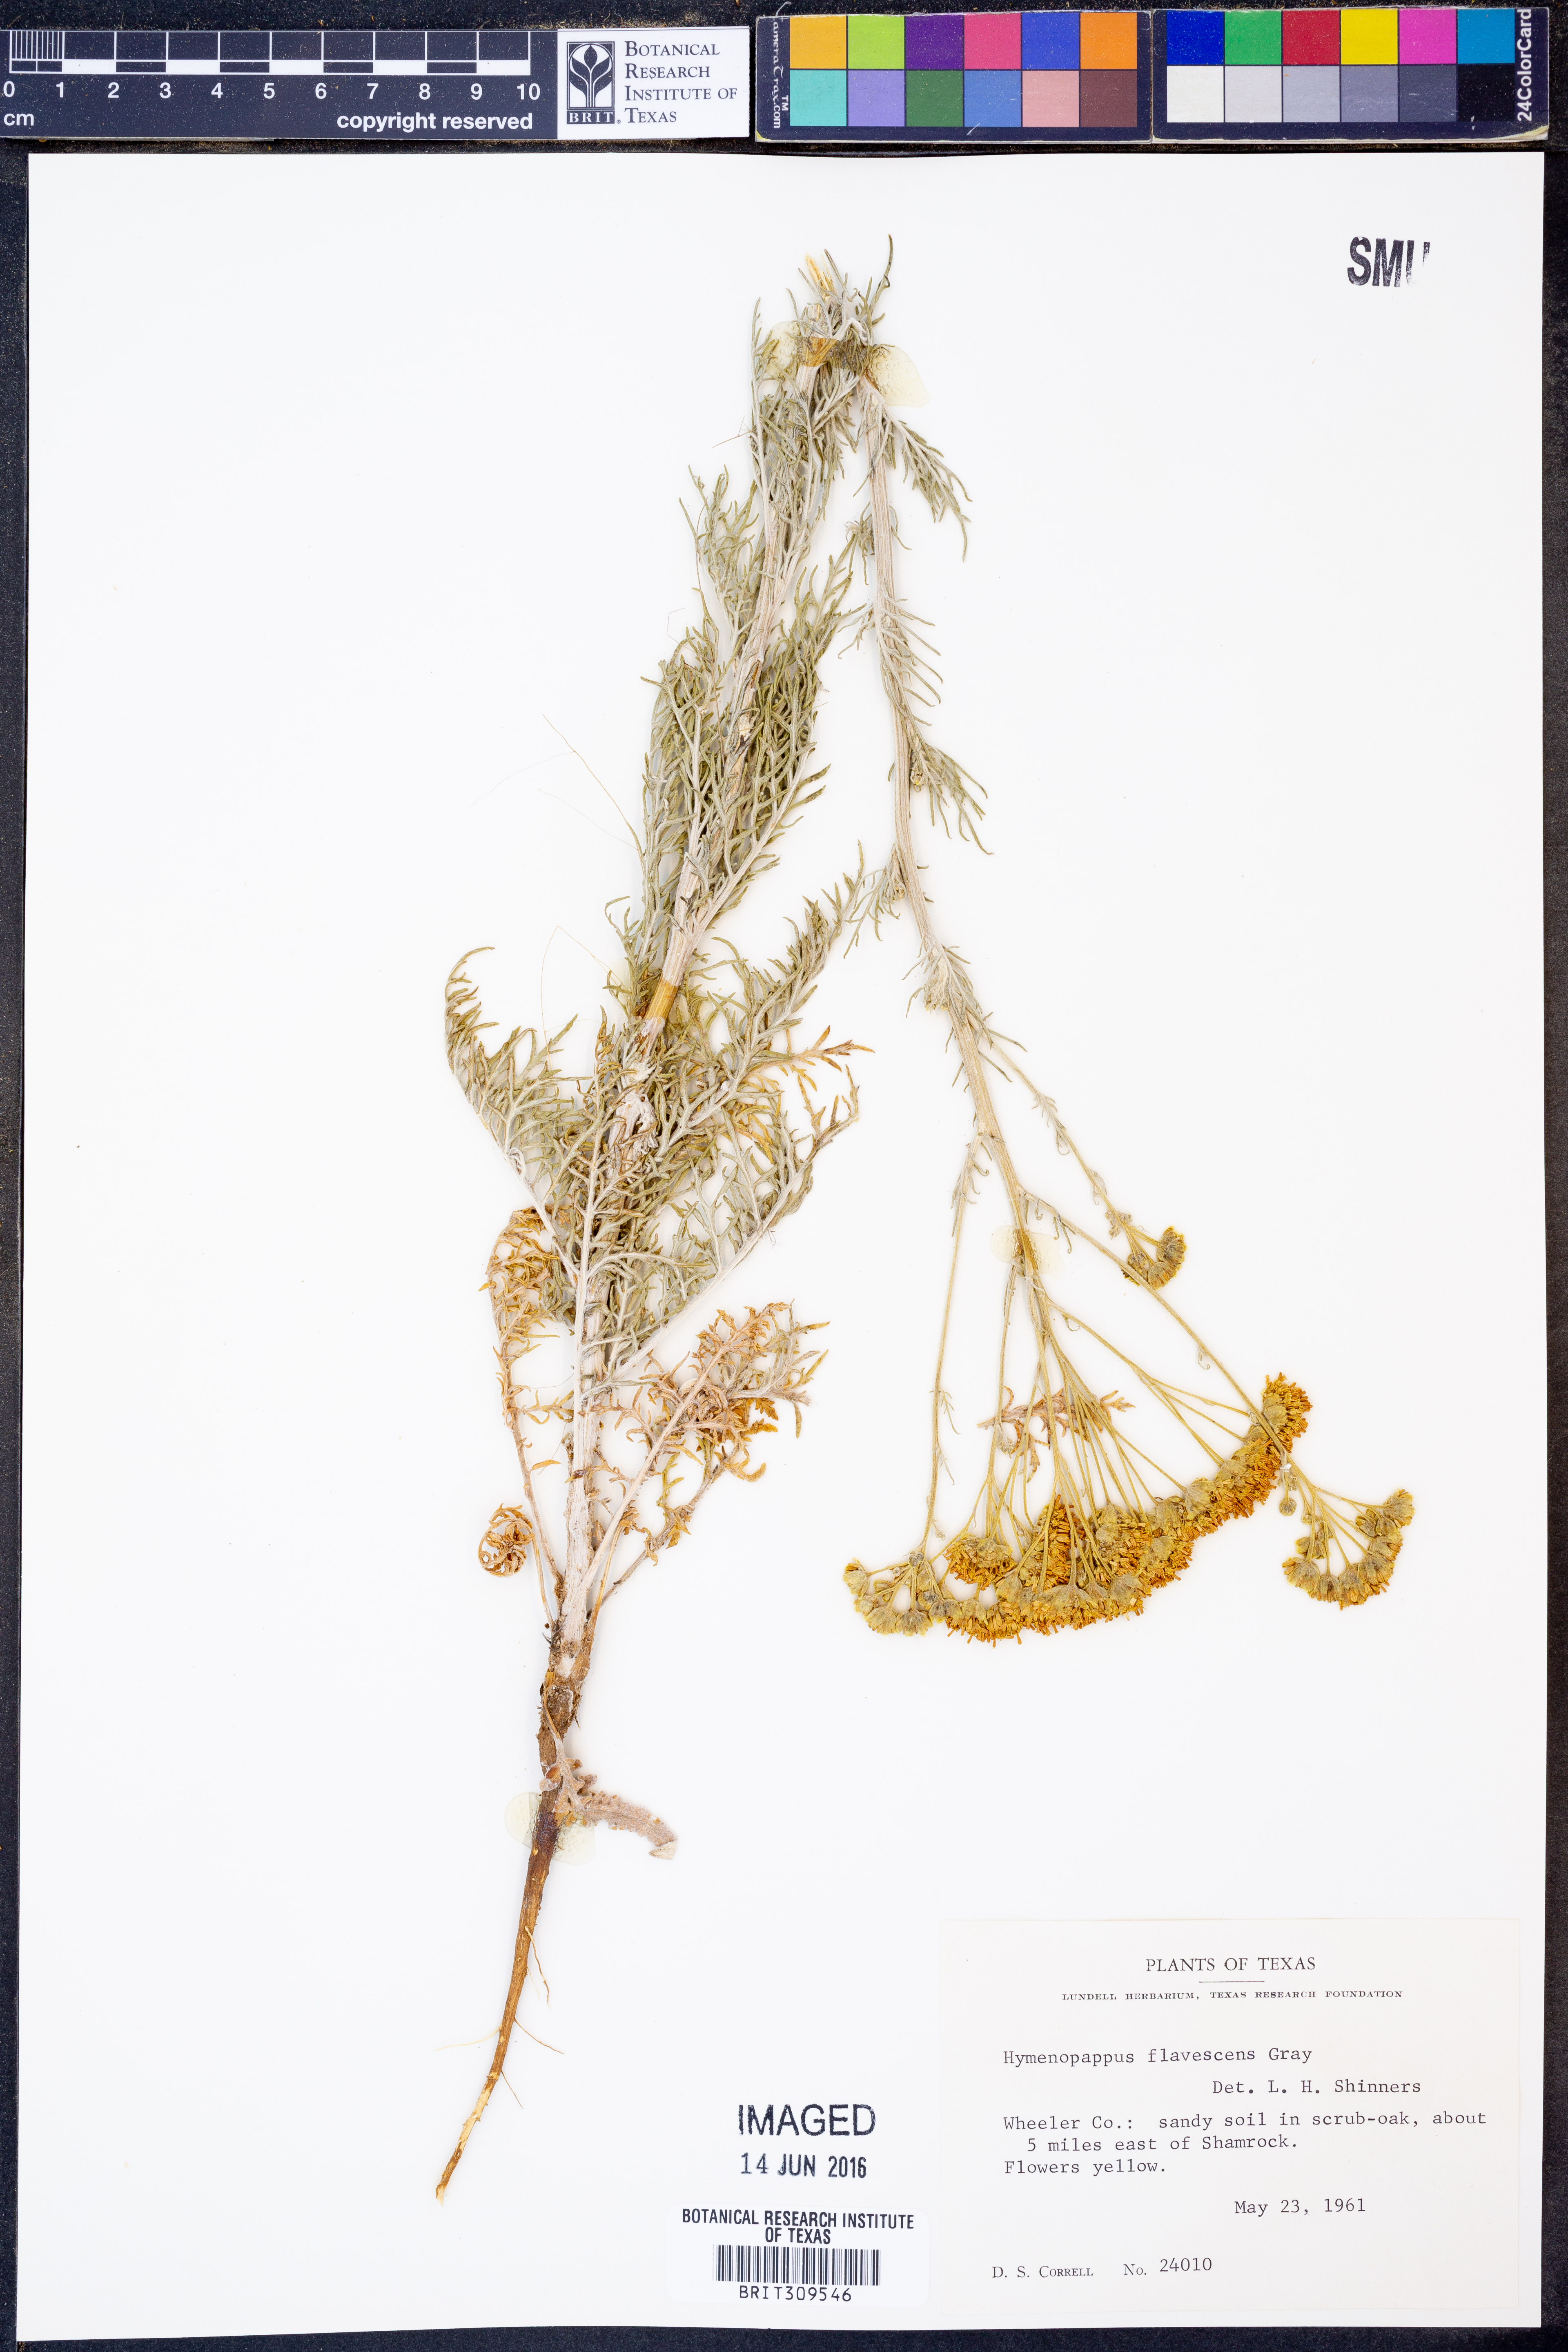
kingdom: Plantae
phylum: Tracheophyta
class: Magnoliopsida
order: Asterales
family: Asteraceae
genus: Hymenopappus
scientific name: Hymenopappus flavescens
